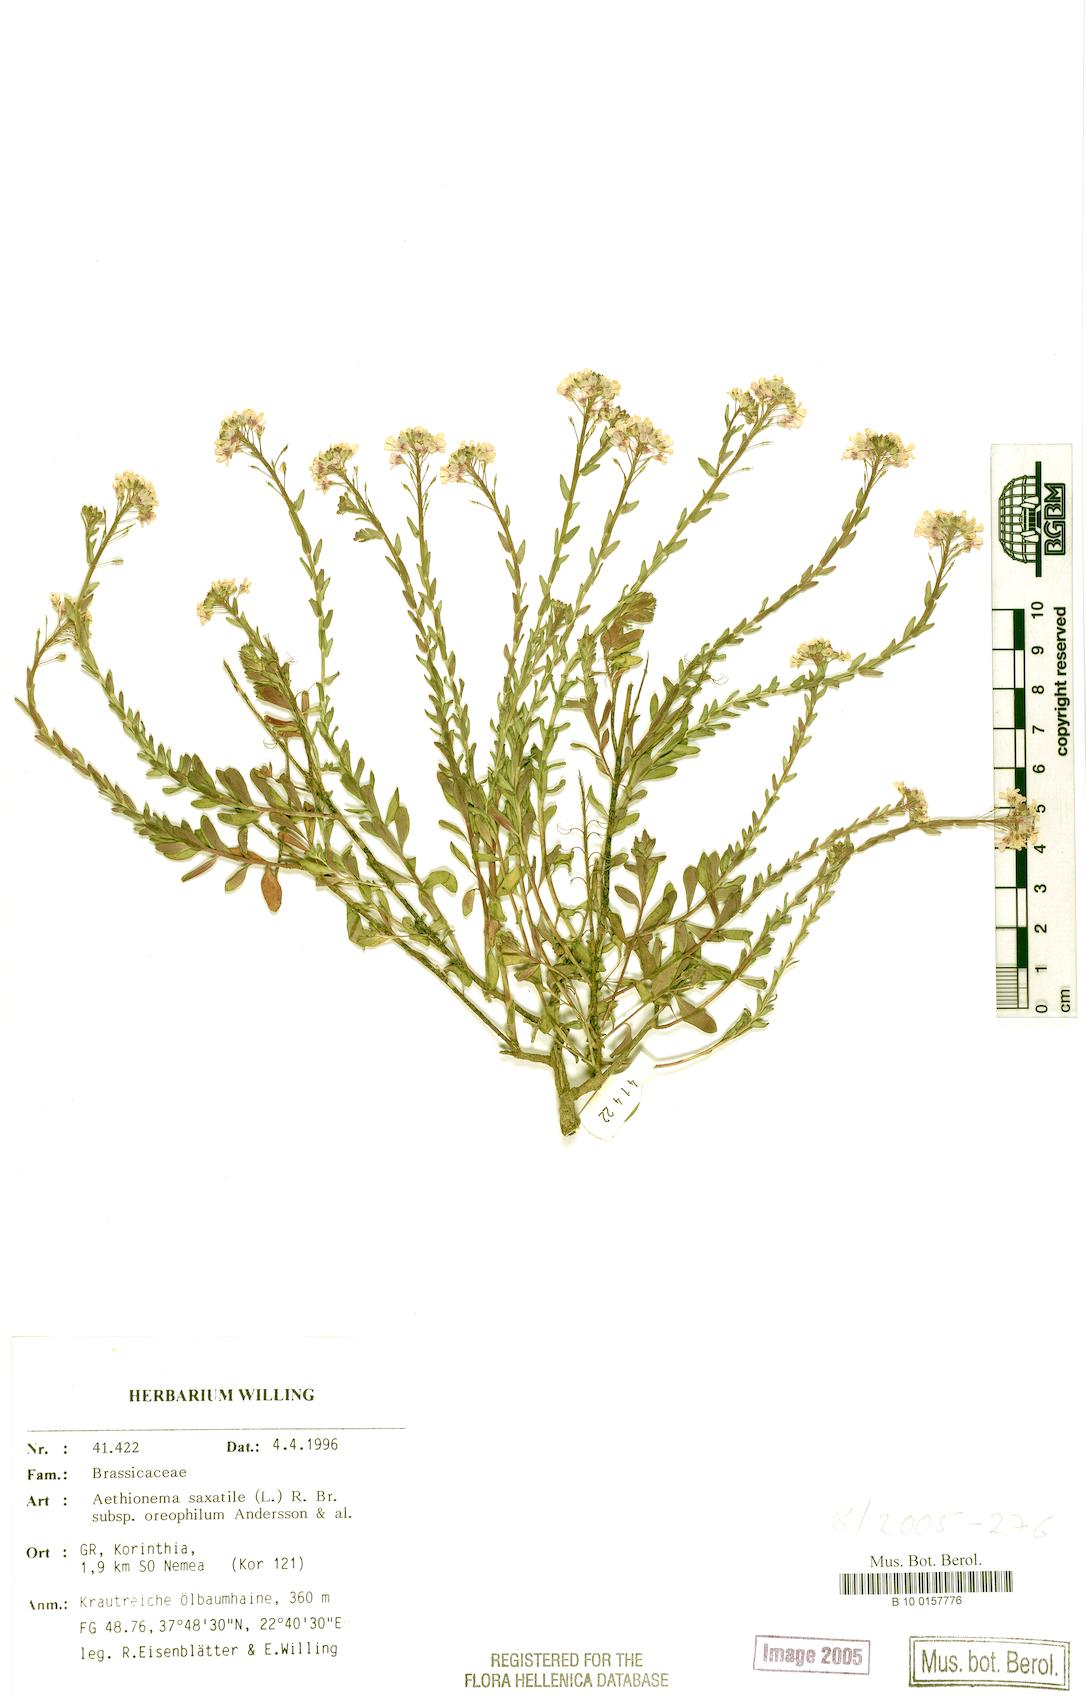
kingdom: Plantae
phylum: Tracheophyta
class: Magnoliopsida
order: Brassicales
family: Brassicaceae
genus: Aethionema
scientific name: Aethionema saxatile
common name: Burnt candytuft
